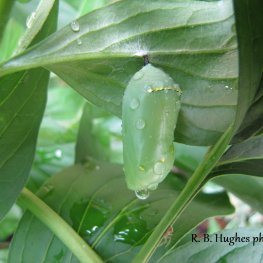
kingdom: Animalia
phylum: Arthropoda
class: Insecta
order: Lepidoptera
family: Nymphalidae
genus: Danaus
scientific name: Danaus plexippus
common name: Monarch
